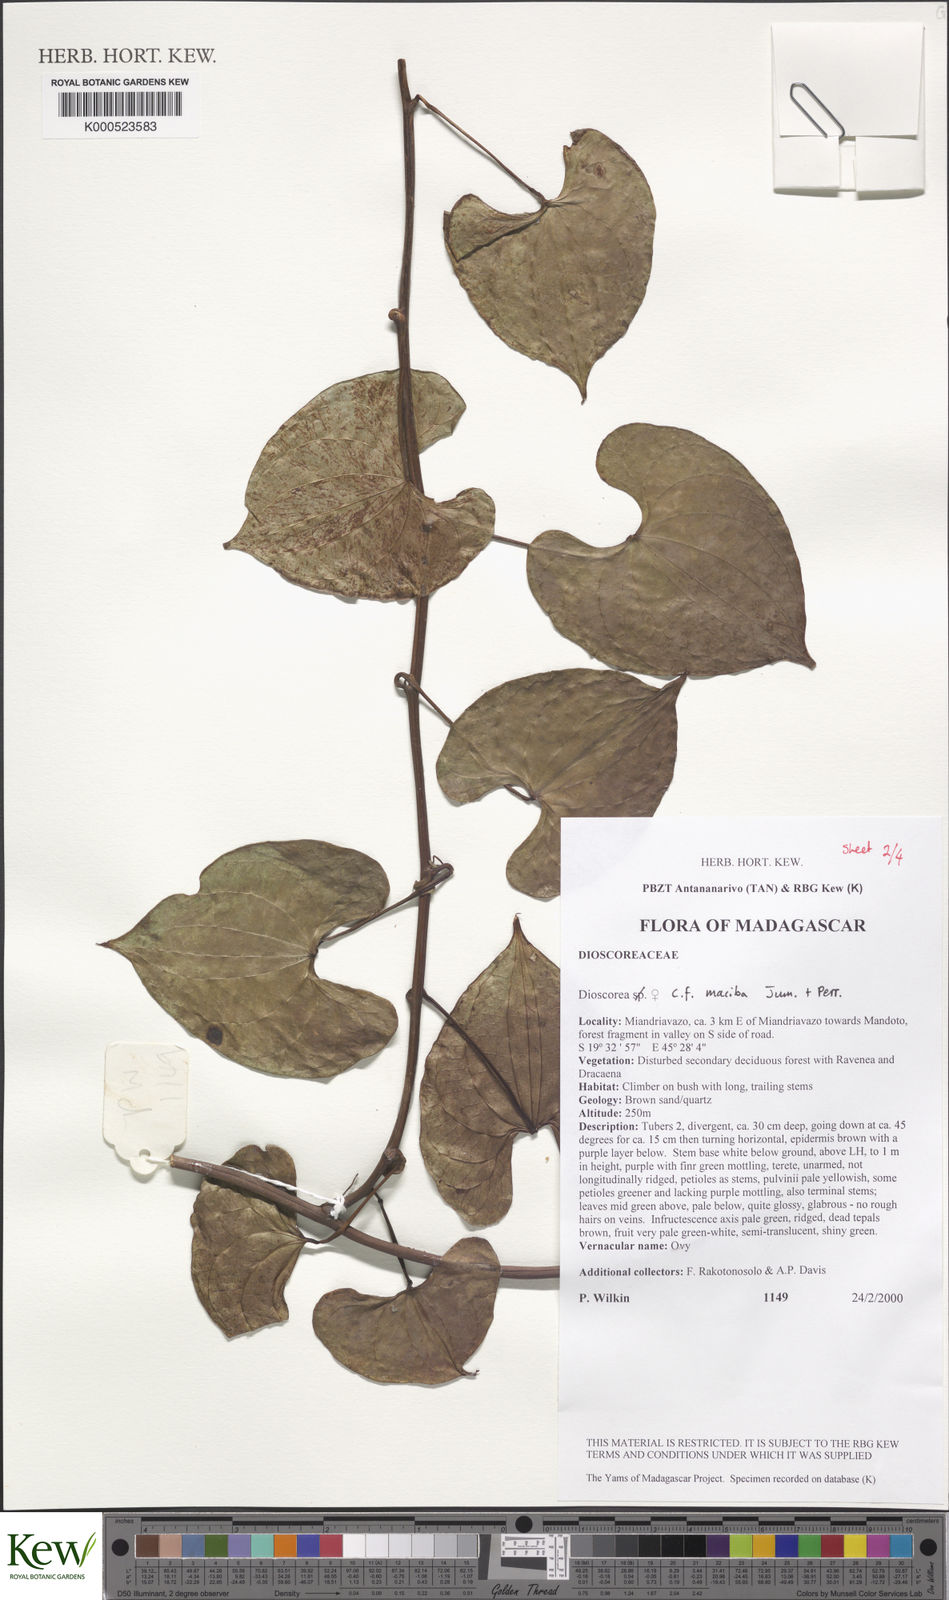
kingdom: Plantae
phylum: Tracheophyta
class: Liliopsida
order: Dioscoreales
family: Dioscoreaceae
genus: Dioscorea
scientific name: Dioscorea maciba
